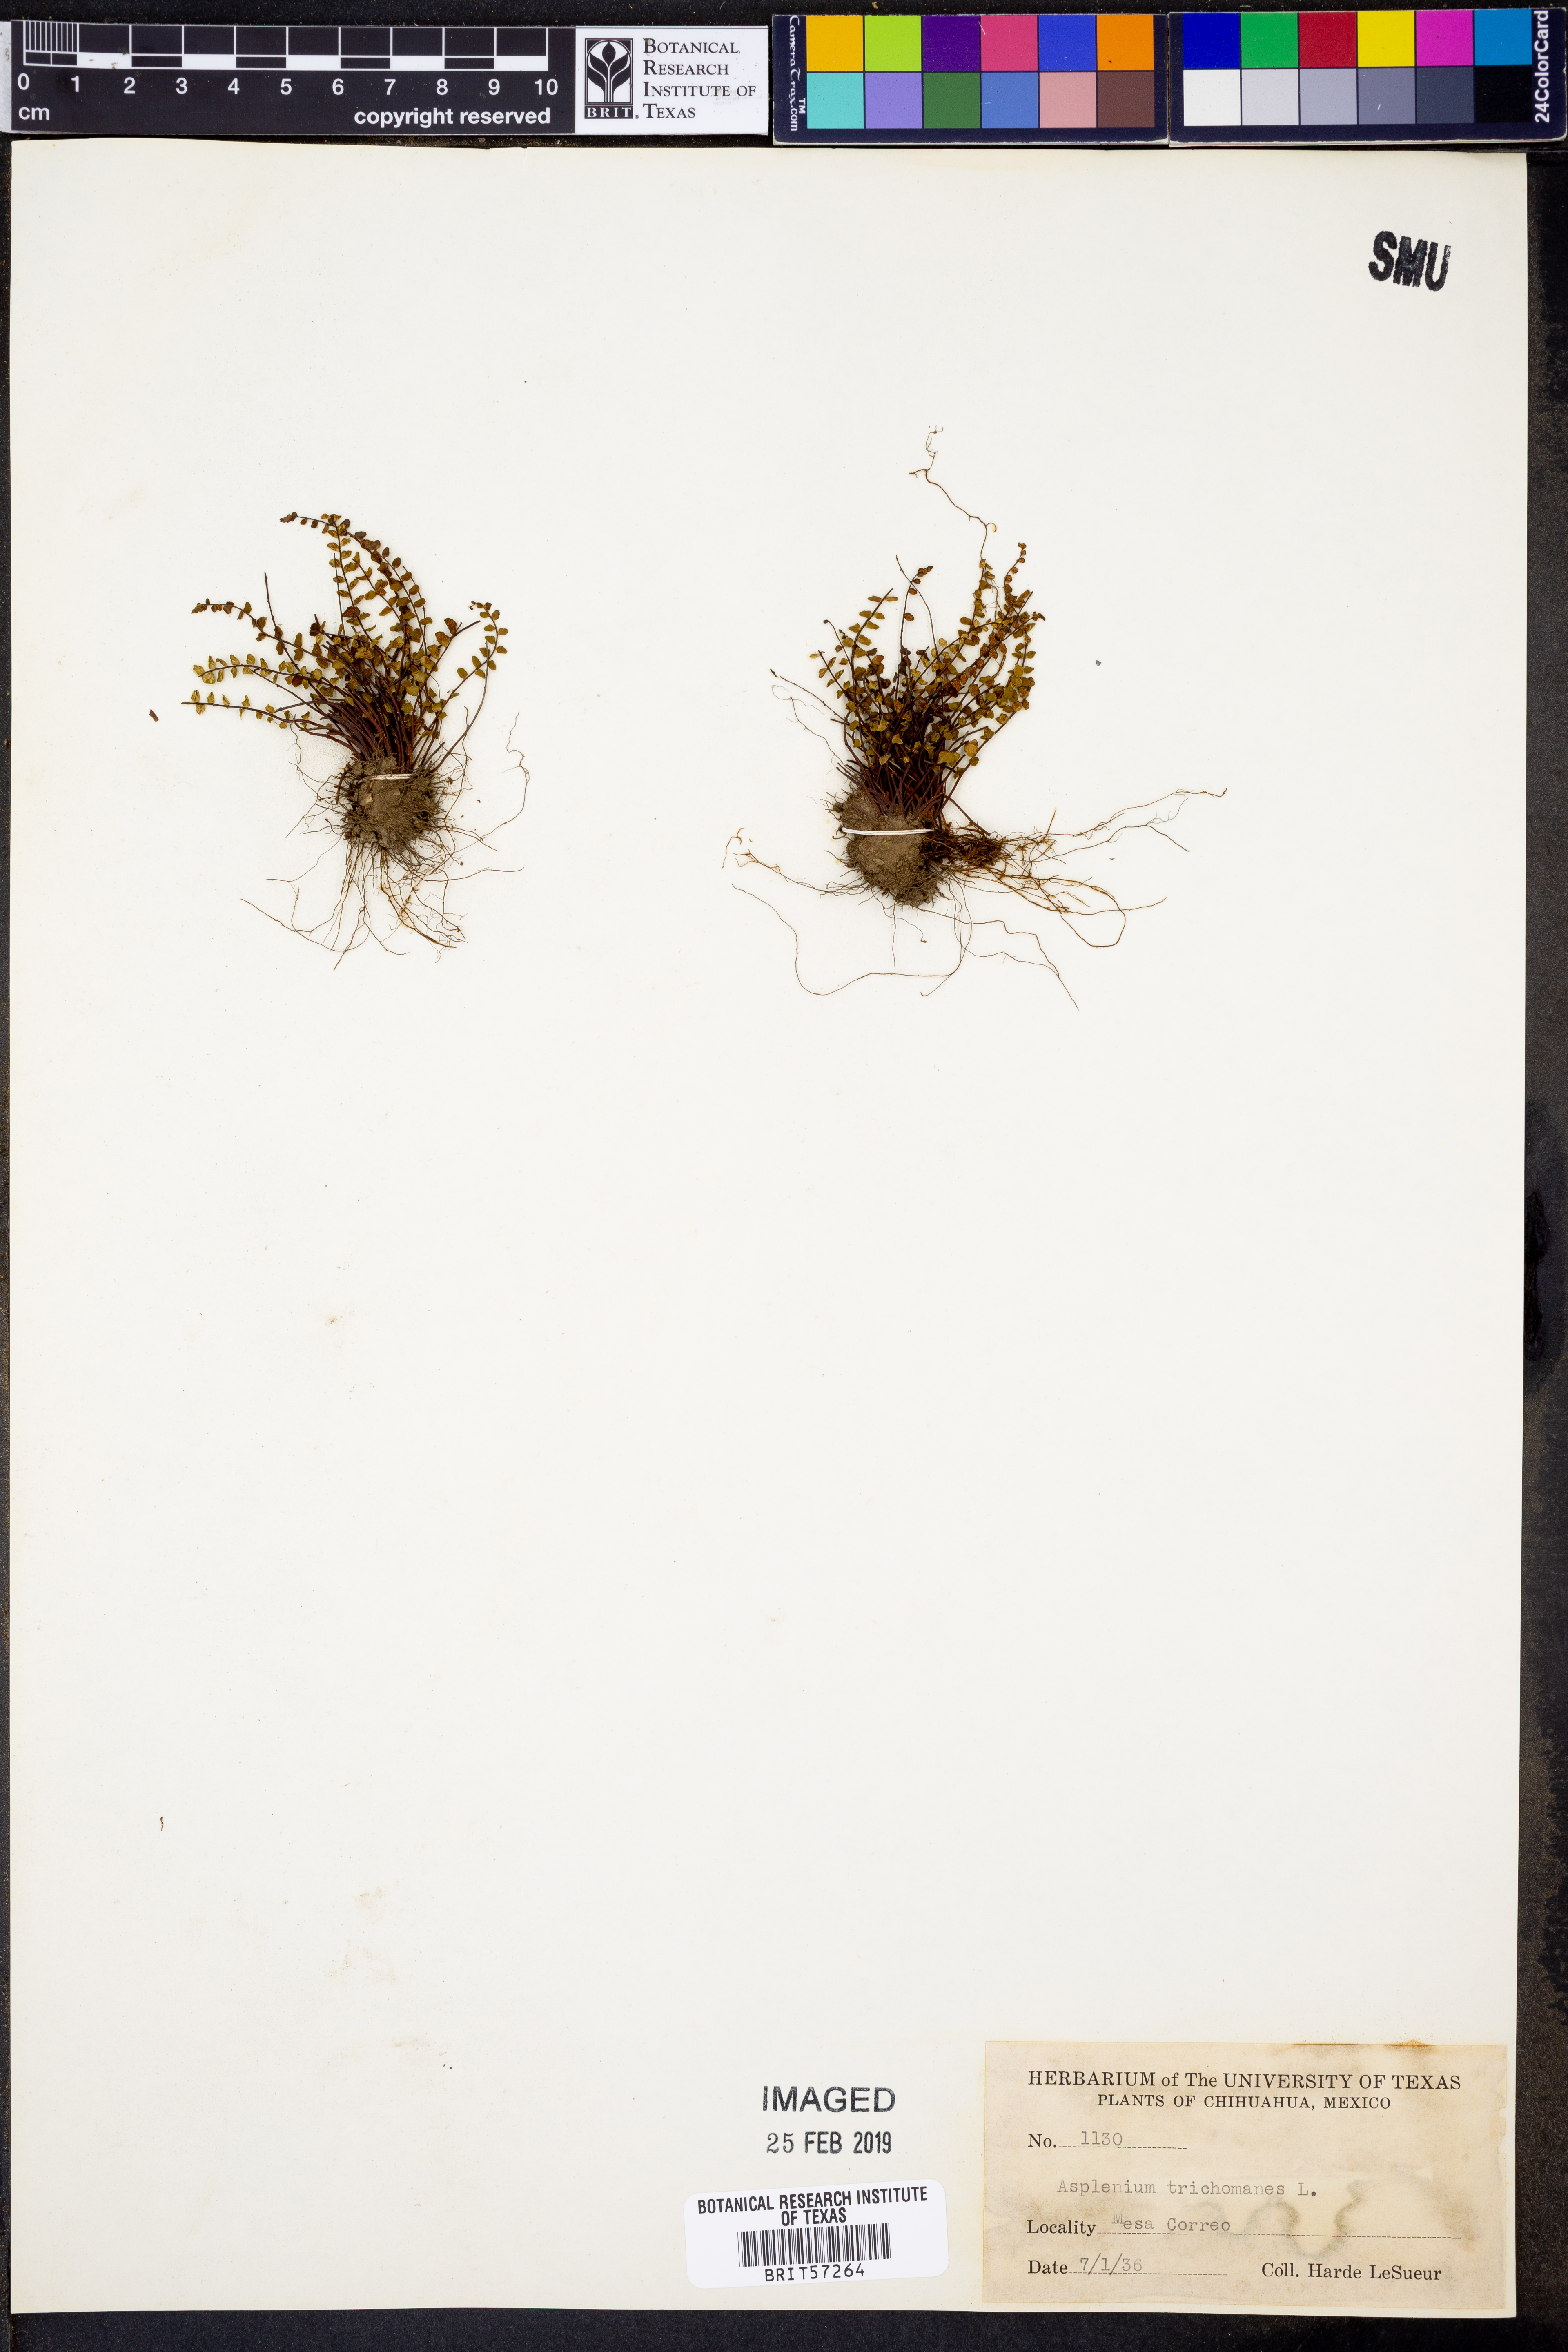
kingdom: Plantae
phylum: Tracheophyta
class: Polypodiopsida
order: Polypodiales
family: Aspleniaceae
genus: Asplenium
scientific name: Asplenium trichomanes
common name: Maidenhair spleenwort
